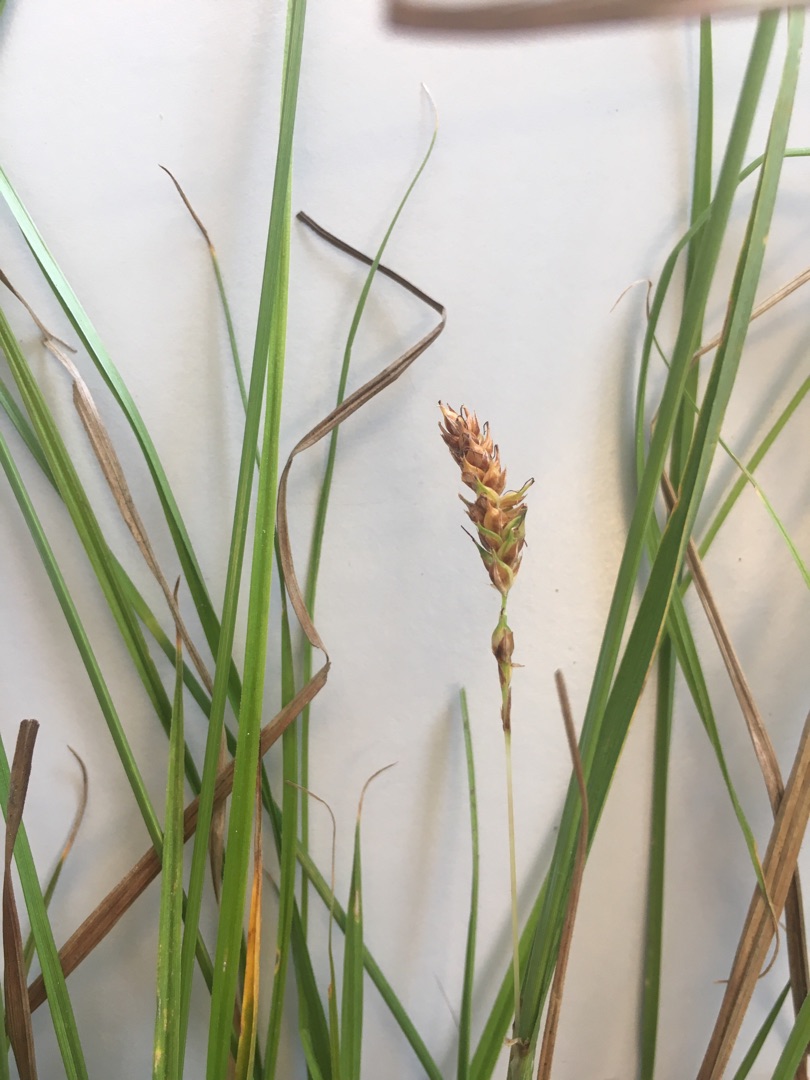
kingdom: Plantae
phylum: Tracheophyta
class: Liliopsida
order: Poales
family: Cyperaceae
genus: Carex
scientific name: Carex distans
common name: Fjernakset star
